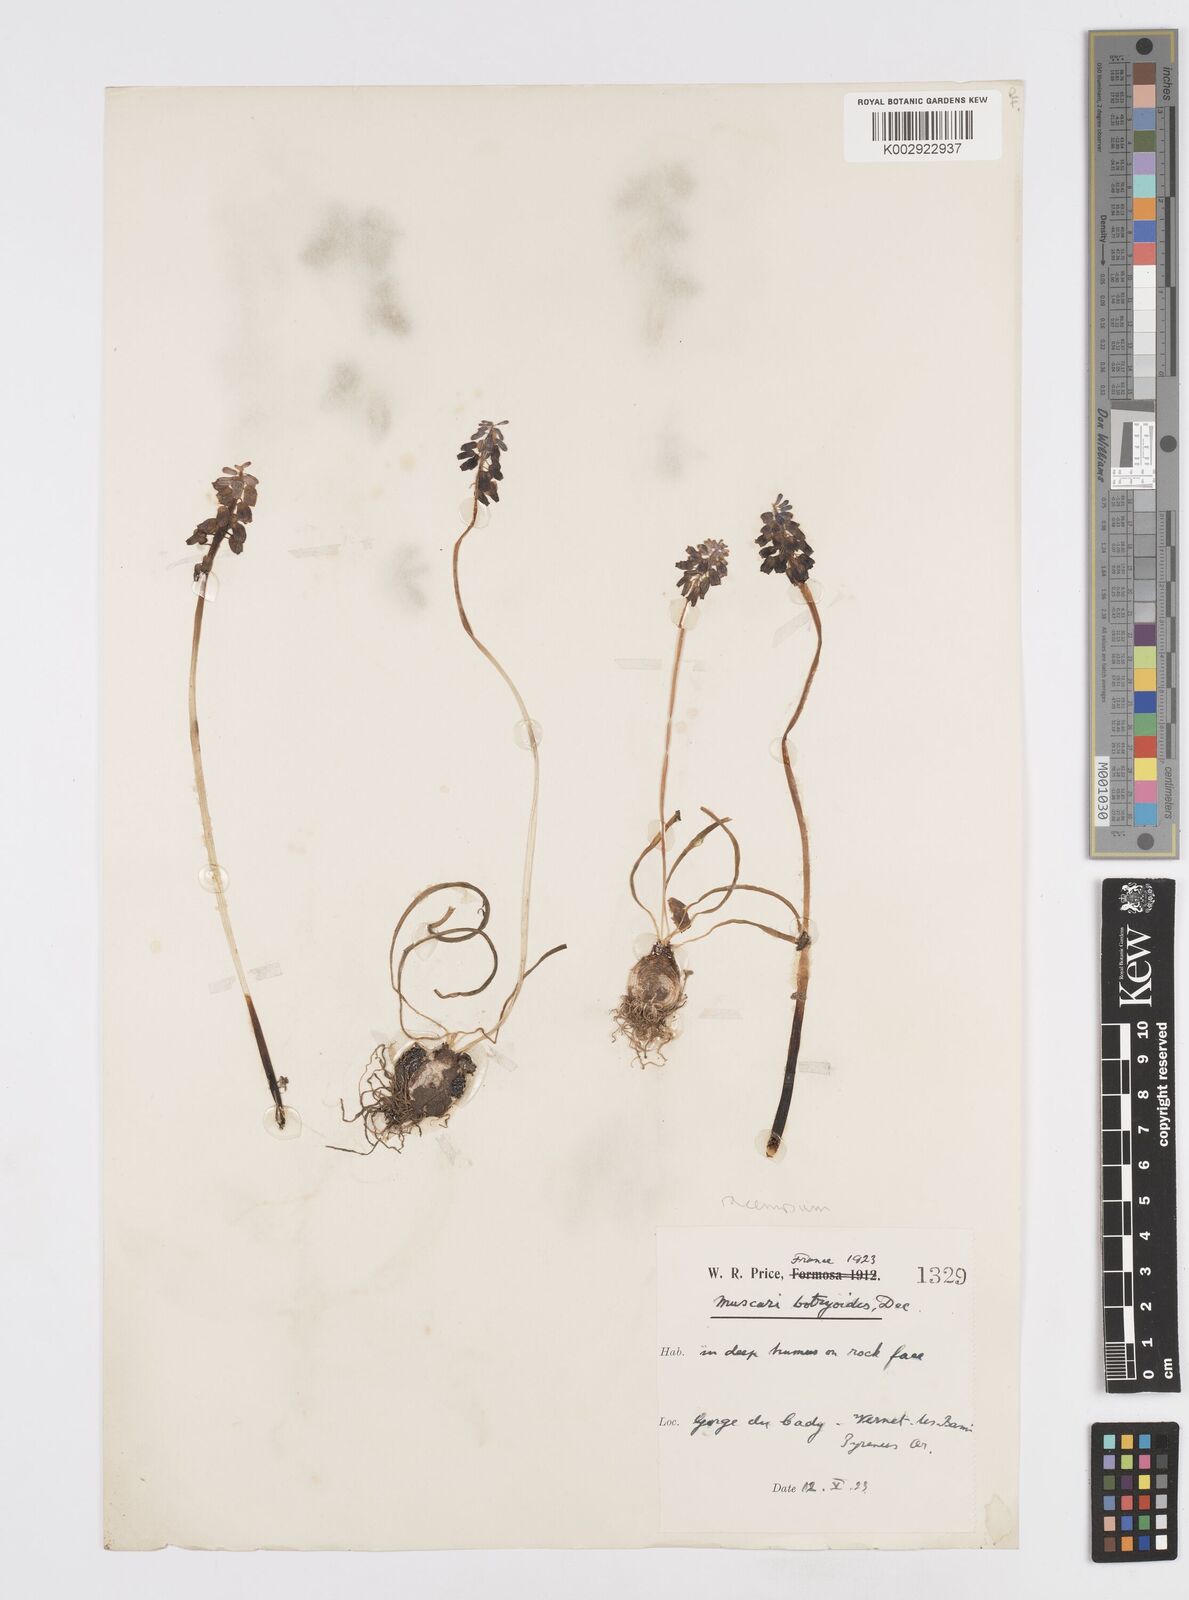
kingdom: Plantae
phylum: Tracheophyta
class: Liliopsida
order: Asparagales
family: Asparagaceae
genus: Muscarimia
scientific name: Muscarimia muscari
